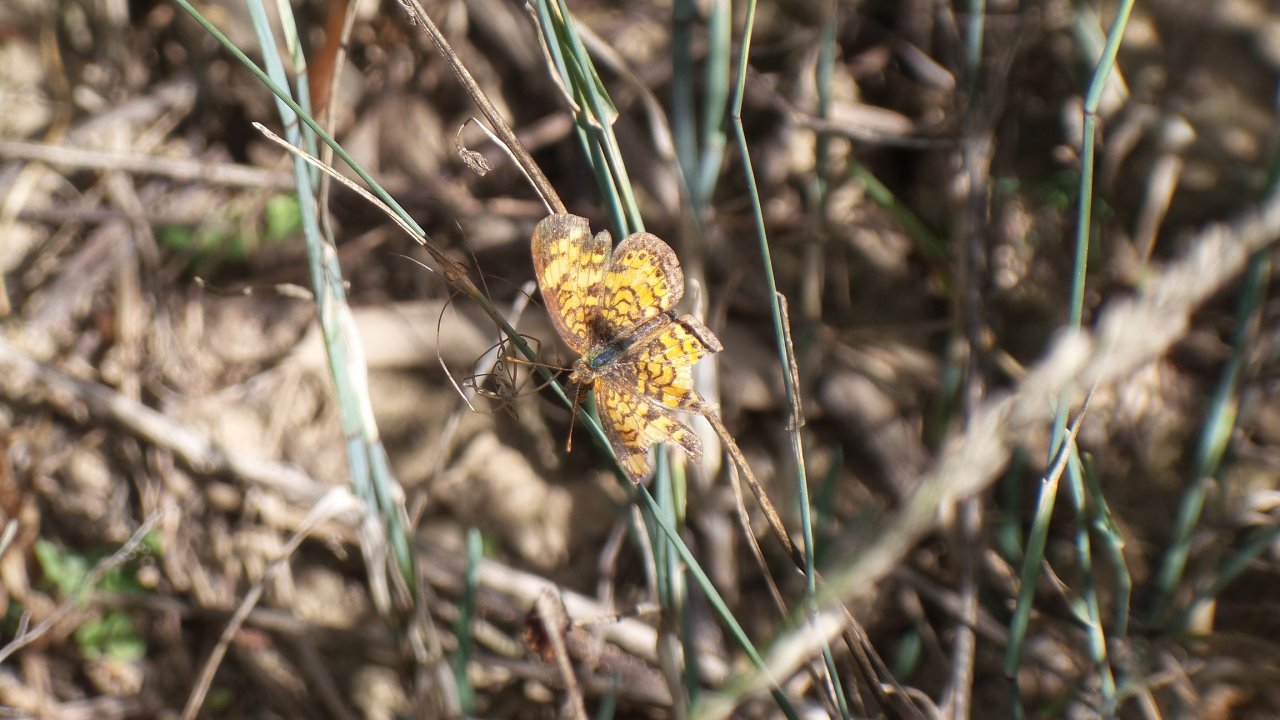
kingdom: Animalia
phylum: Arthropoda
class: Insecta
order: Lepidoptera
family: Nymphalidae
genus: Phyciodes
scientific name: Phyciodes tharos
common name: Pearl Crescent
